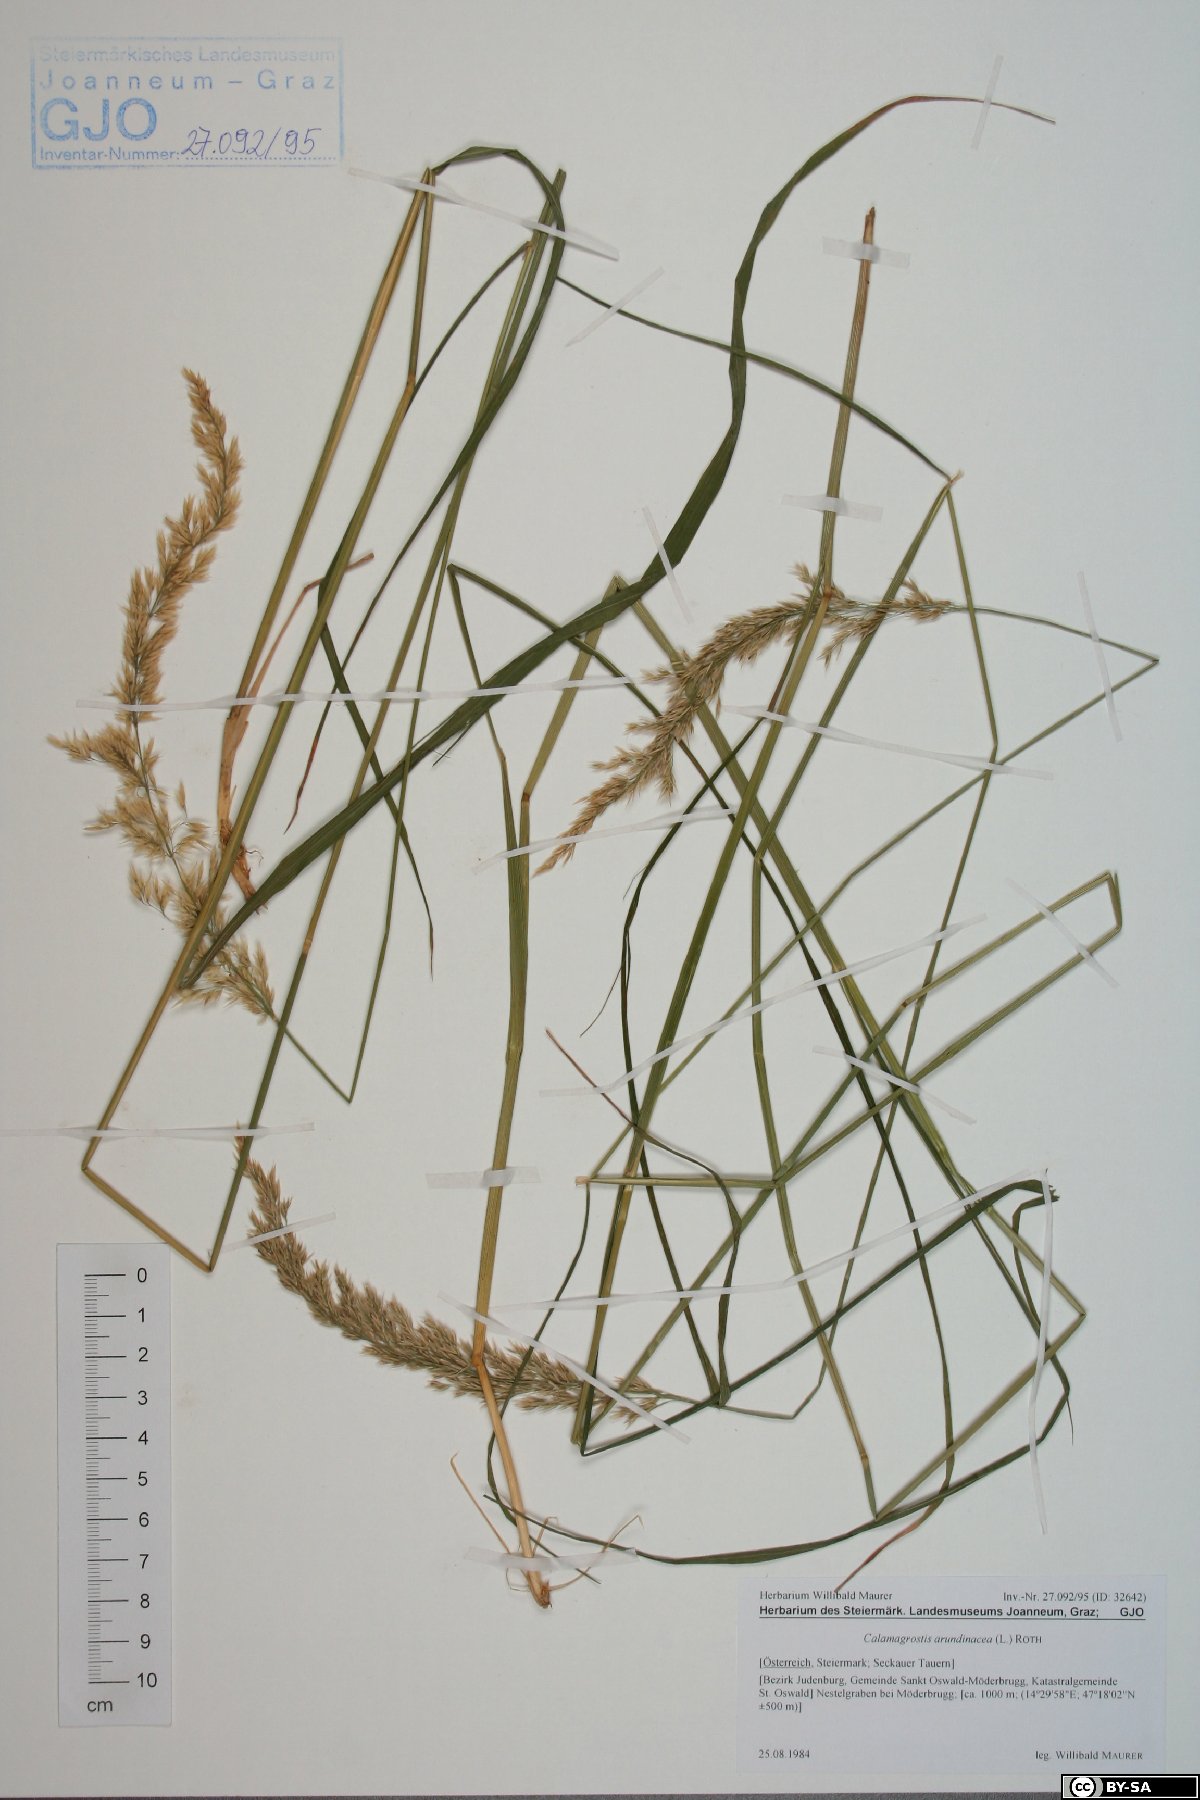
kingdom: Plantae
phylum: Tracheophyta
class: Liliopsida
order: Poales
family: Poaceae
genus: Calamagrostis
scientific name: Calamagrostis arundinacea
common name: Metskastik
